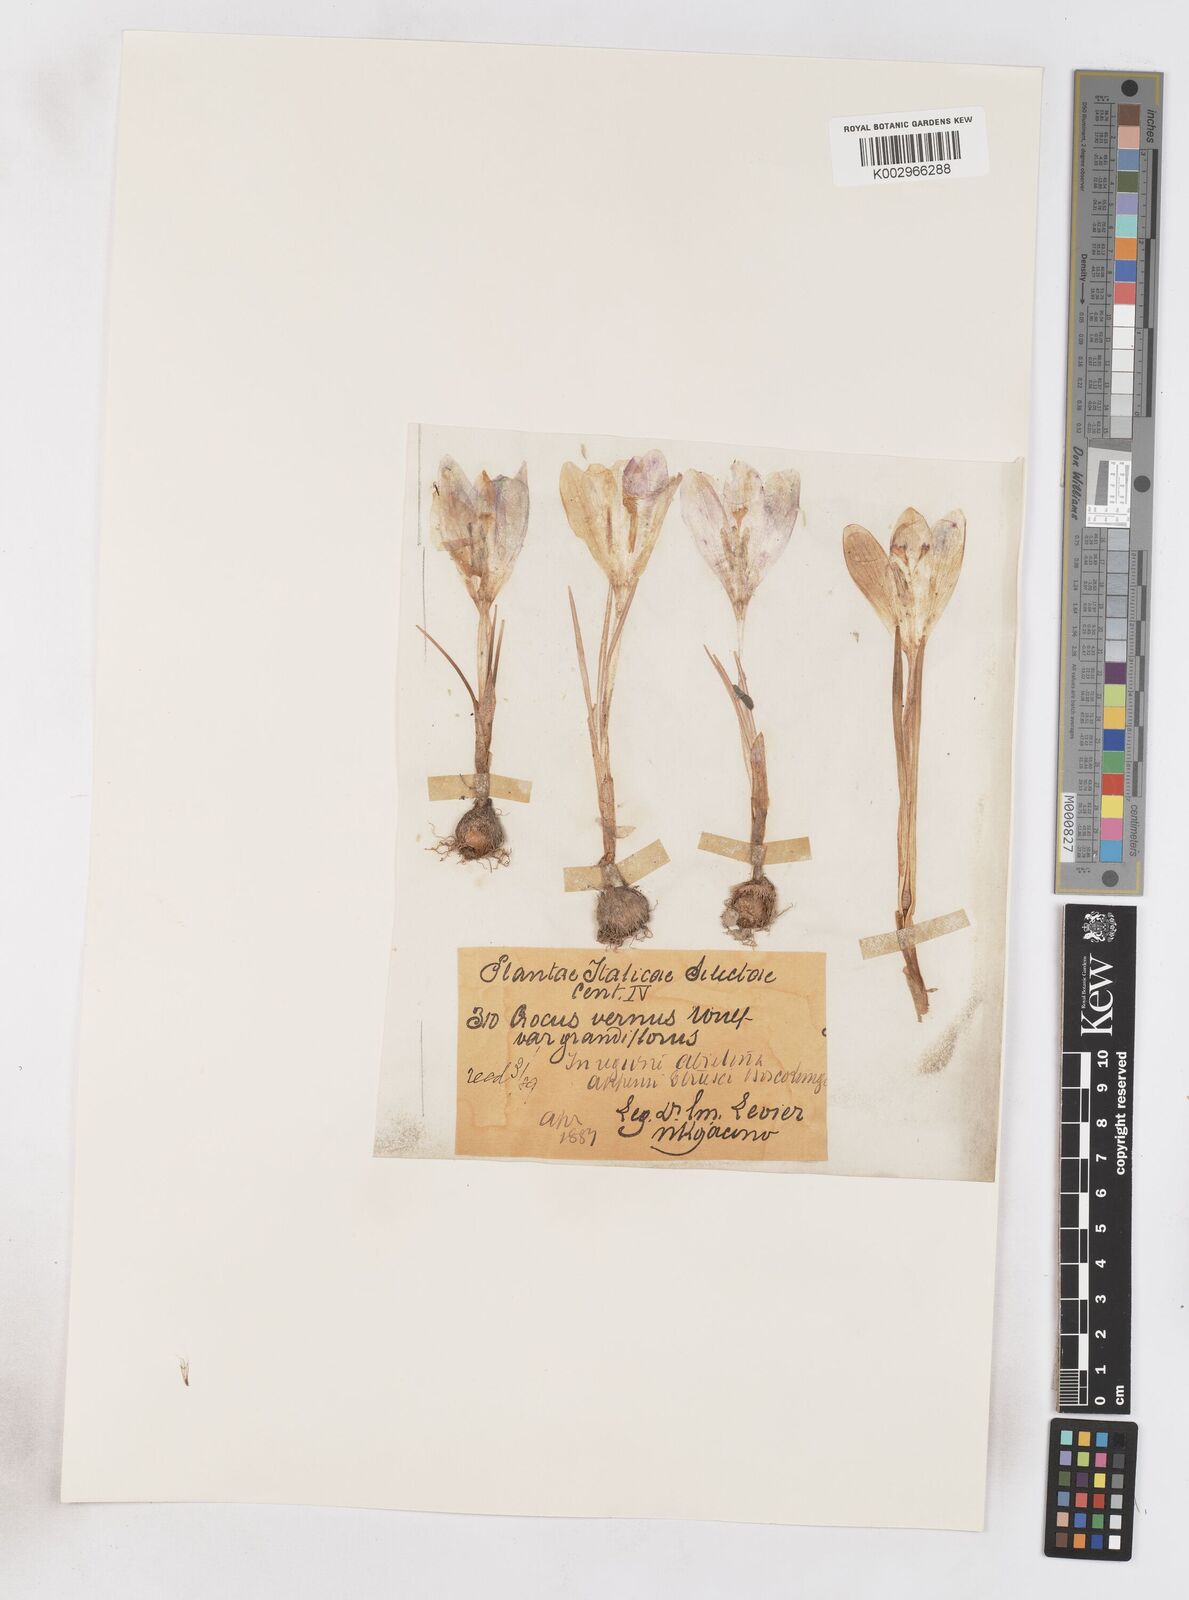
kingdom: Plantae
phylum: Tracheophyta
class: Liliopsida
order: Asparagales
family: Iridaceae
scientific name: Iridaceae
